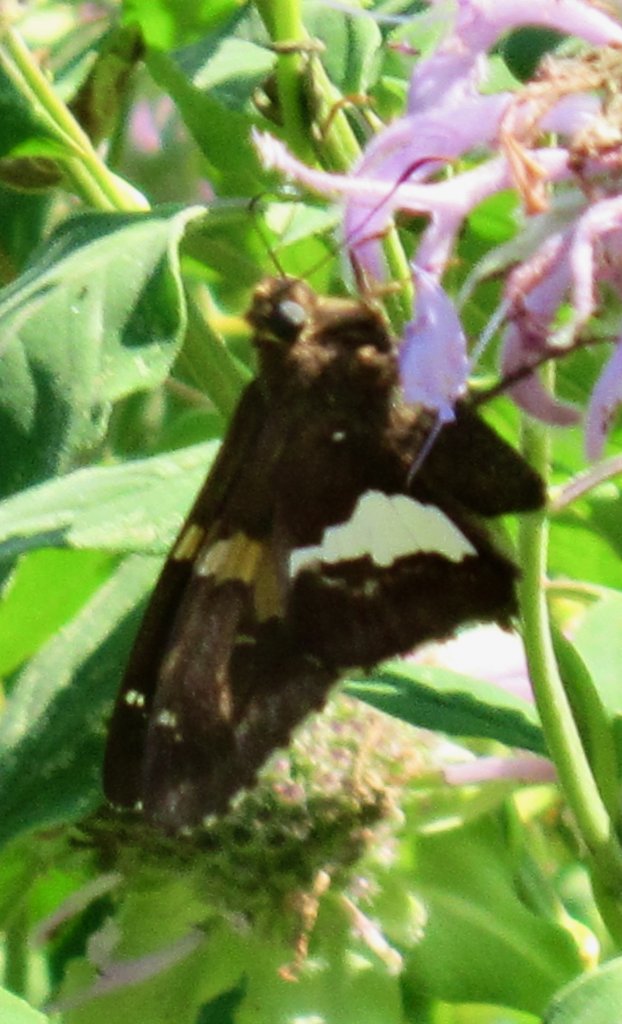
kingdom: Animalia
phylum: Arthropoda
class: Insecta
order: Lepidoptera
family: Hesperiidae
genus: Epargyreus
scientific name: Epargyreus clarus
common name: Silver-spotted Skipper
